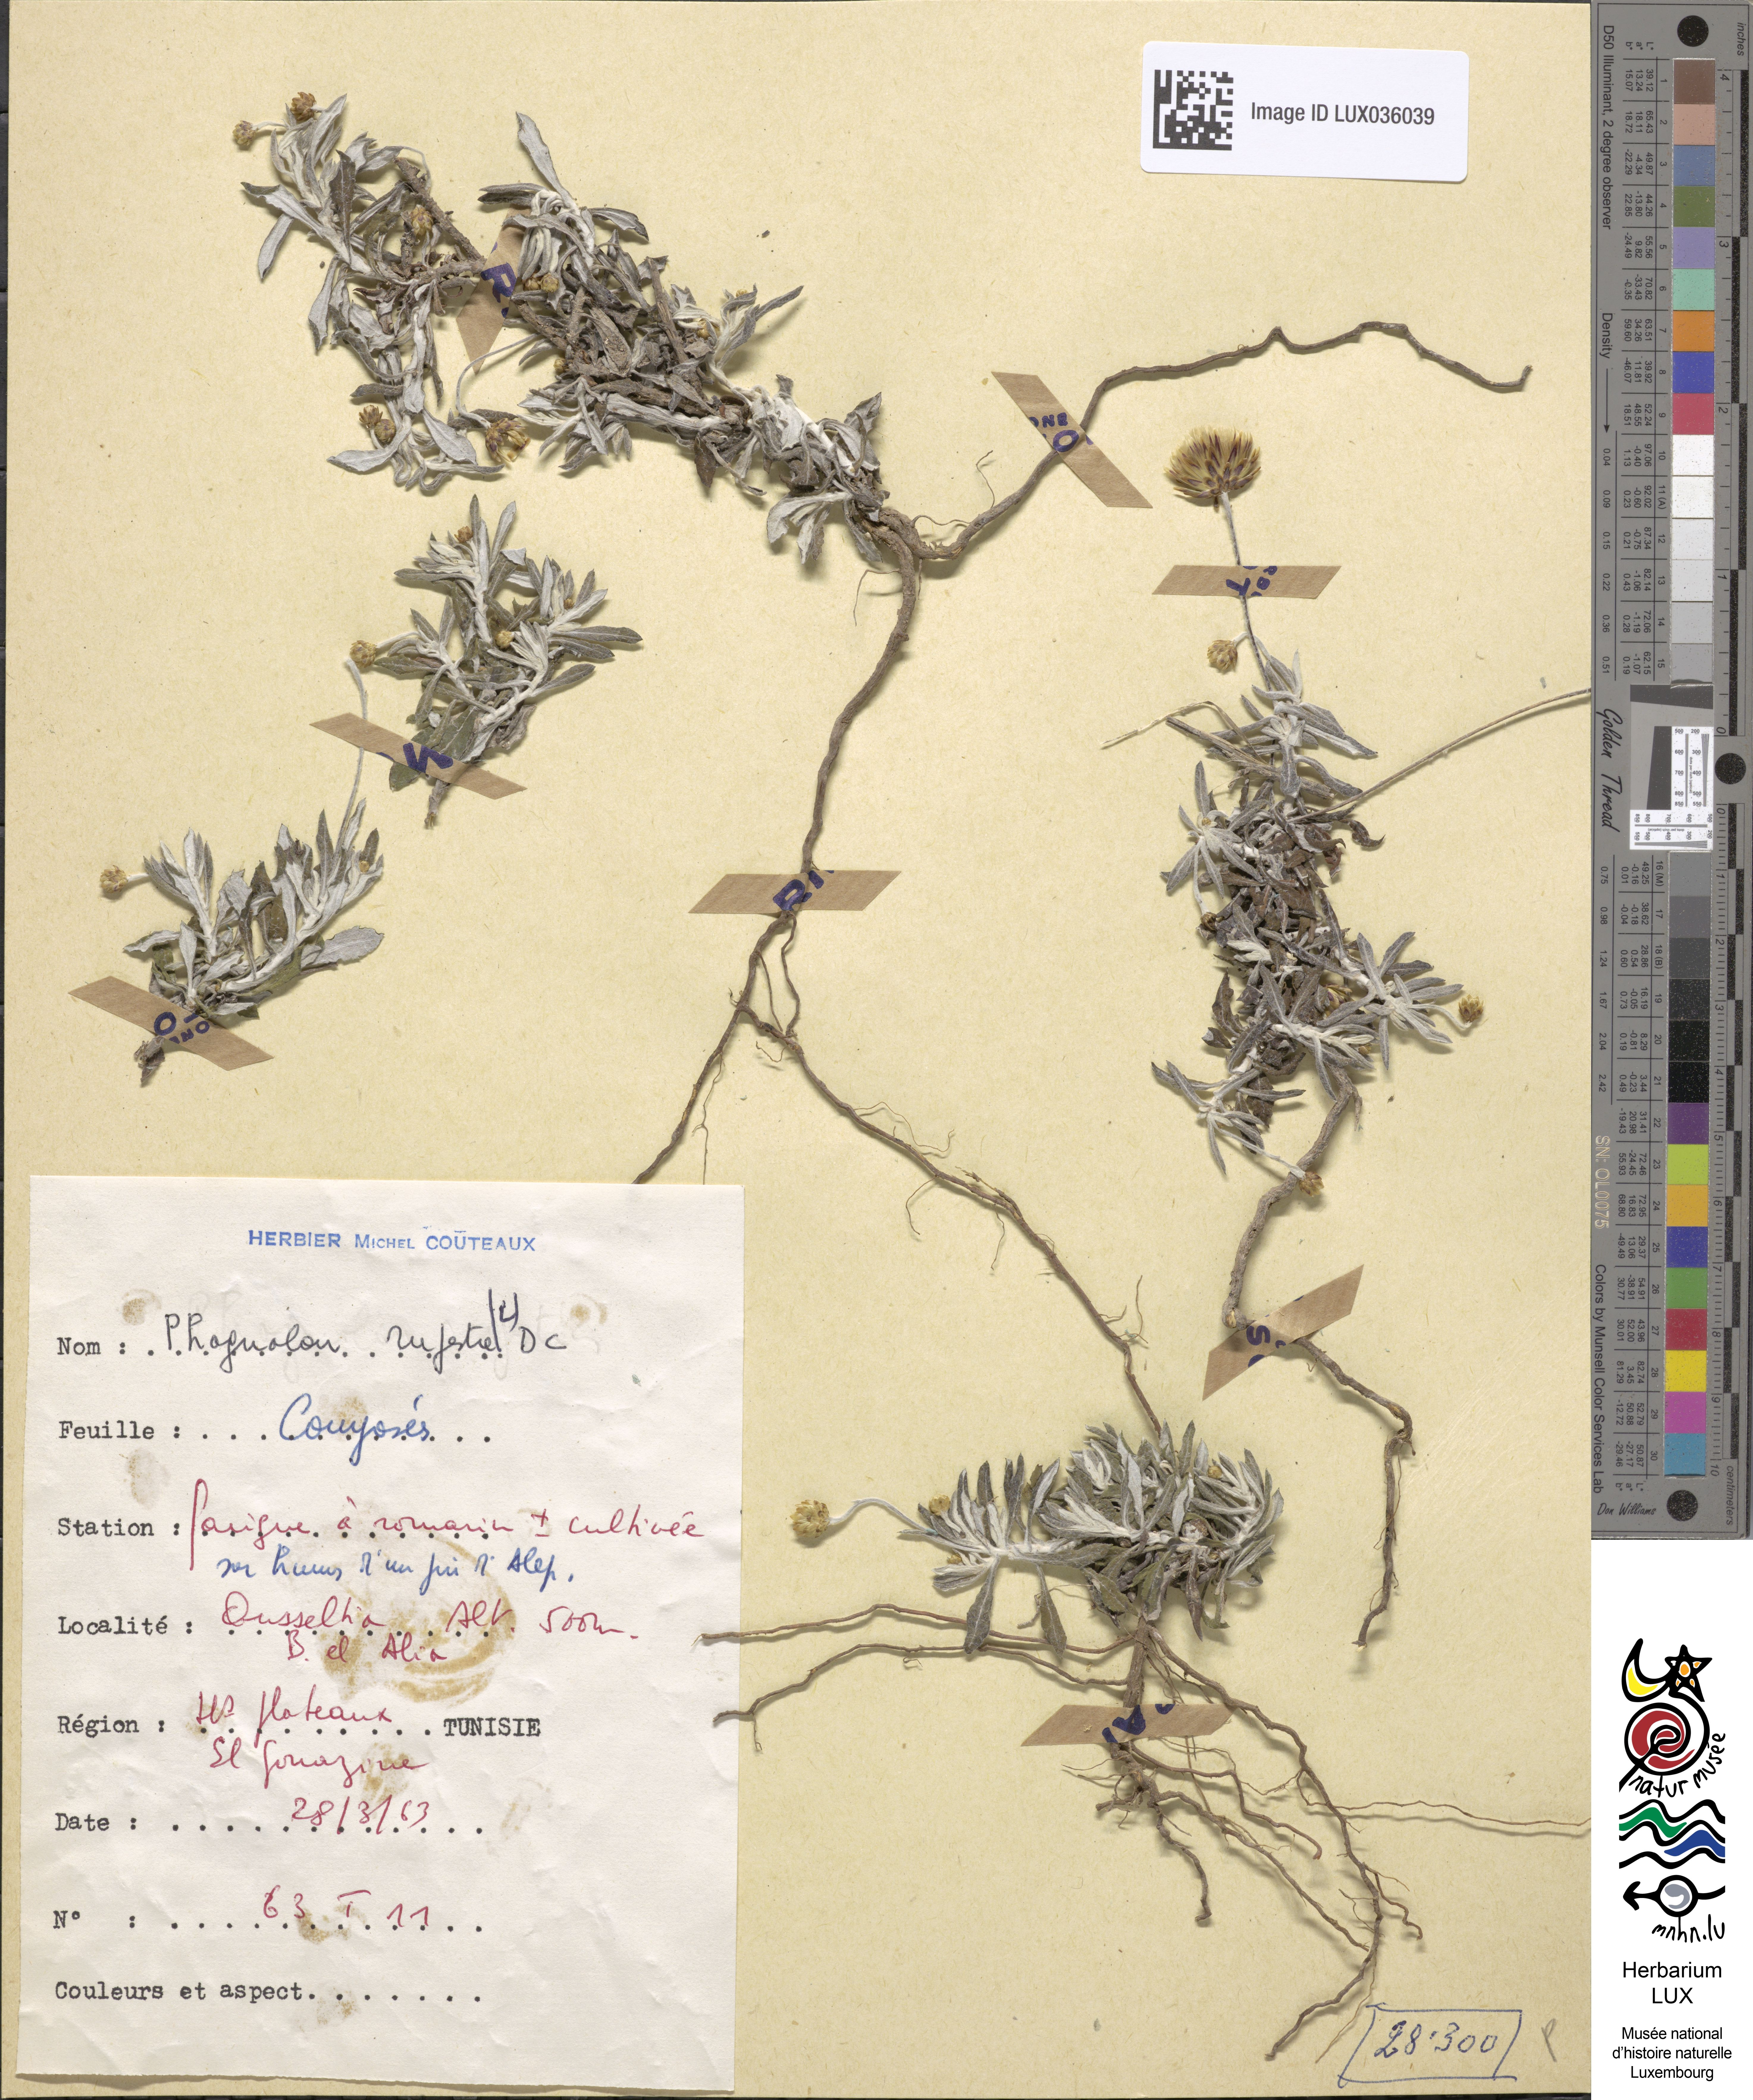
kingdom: Plantae
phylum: Tracheophyta
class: Magnoliopsida
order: Asterales
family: Asteraceae
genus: Phagnalon
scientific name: Phagnalon rupestre
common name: Rock phagnalon
